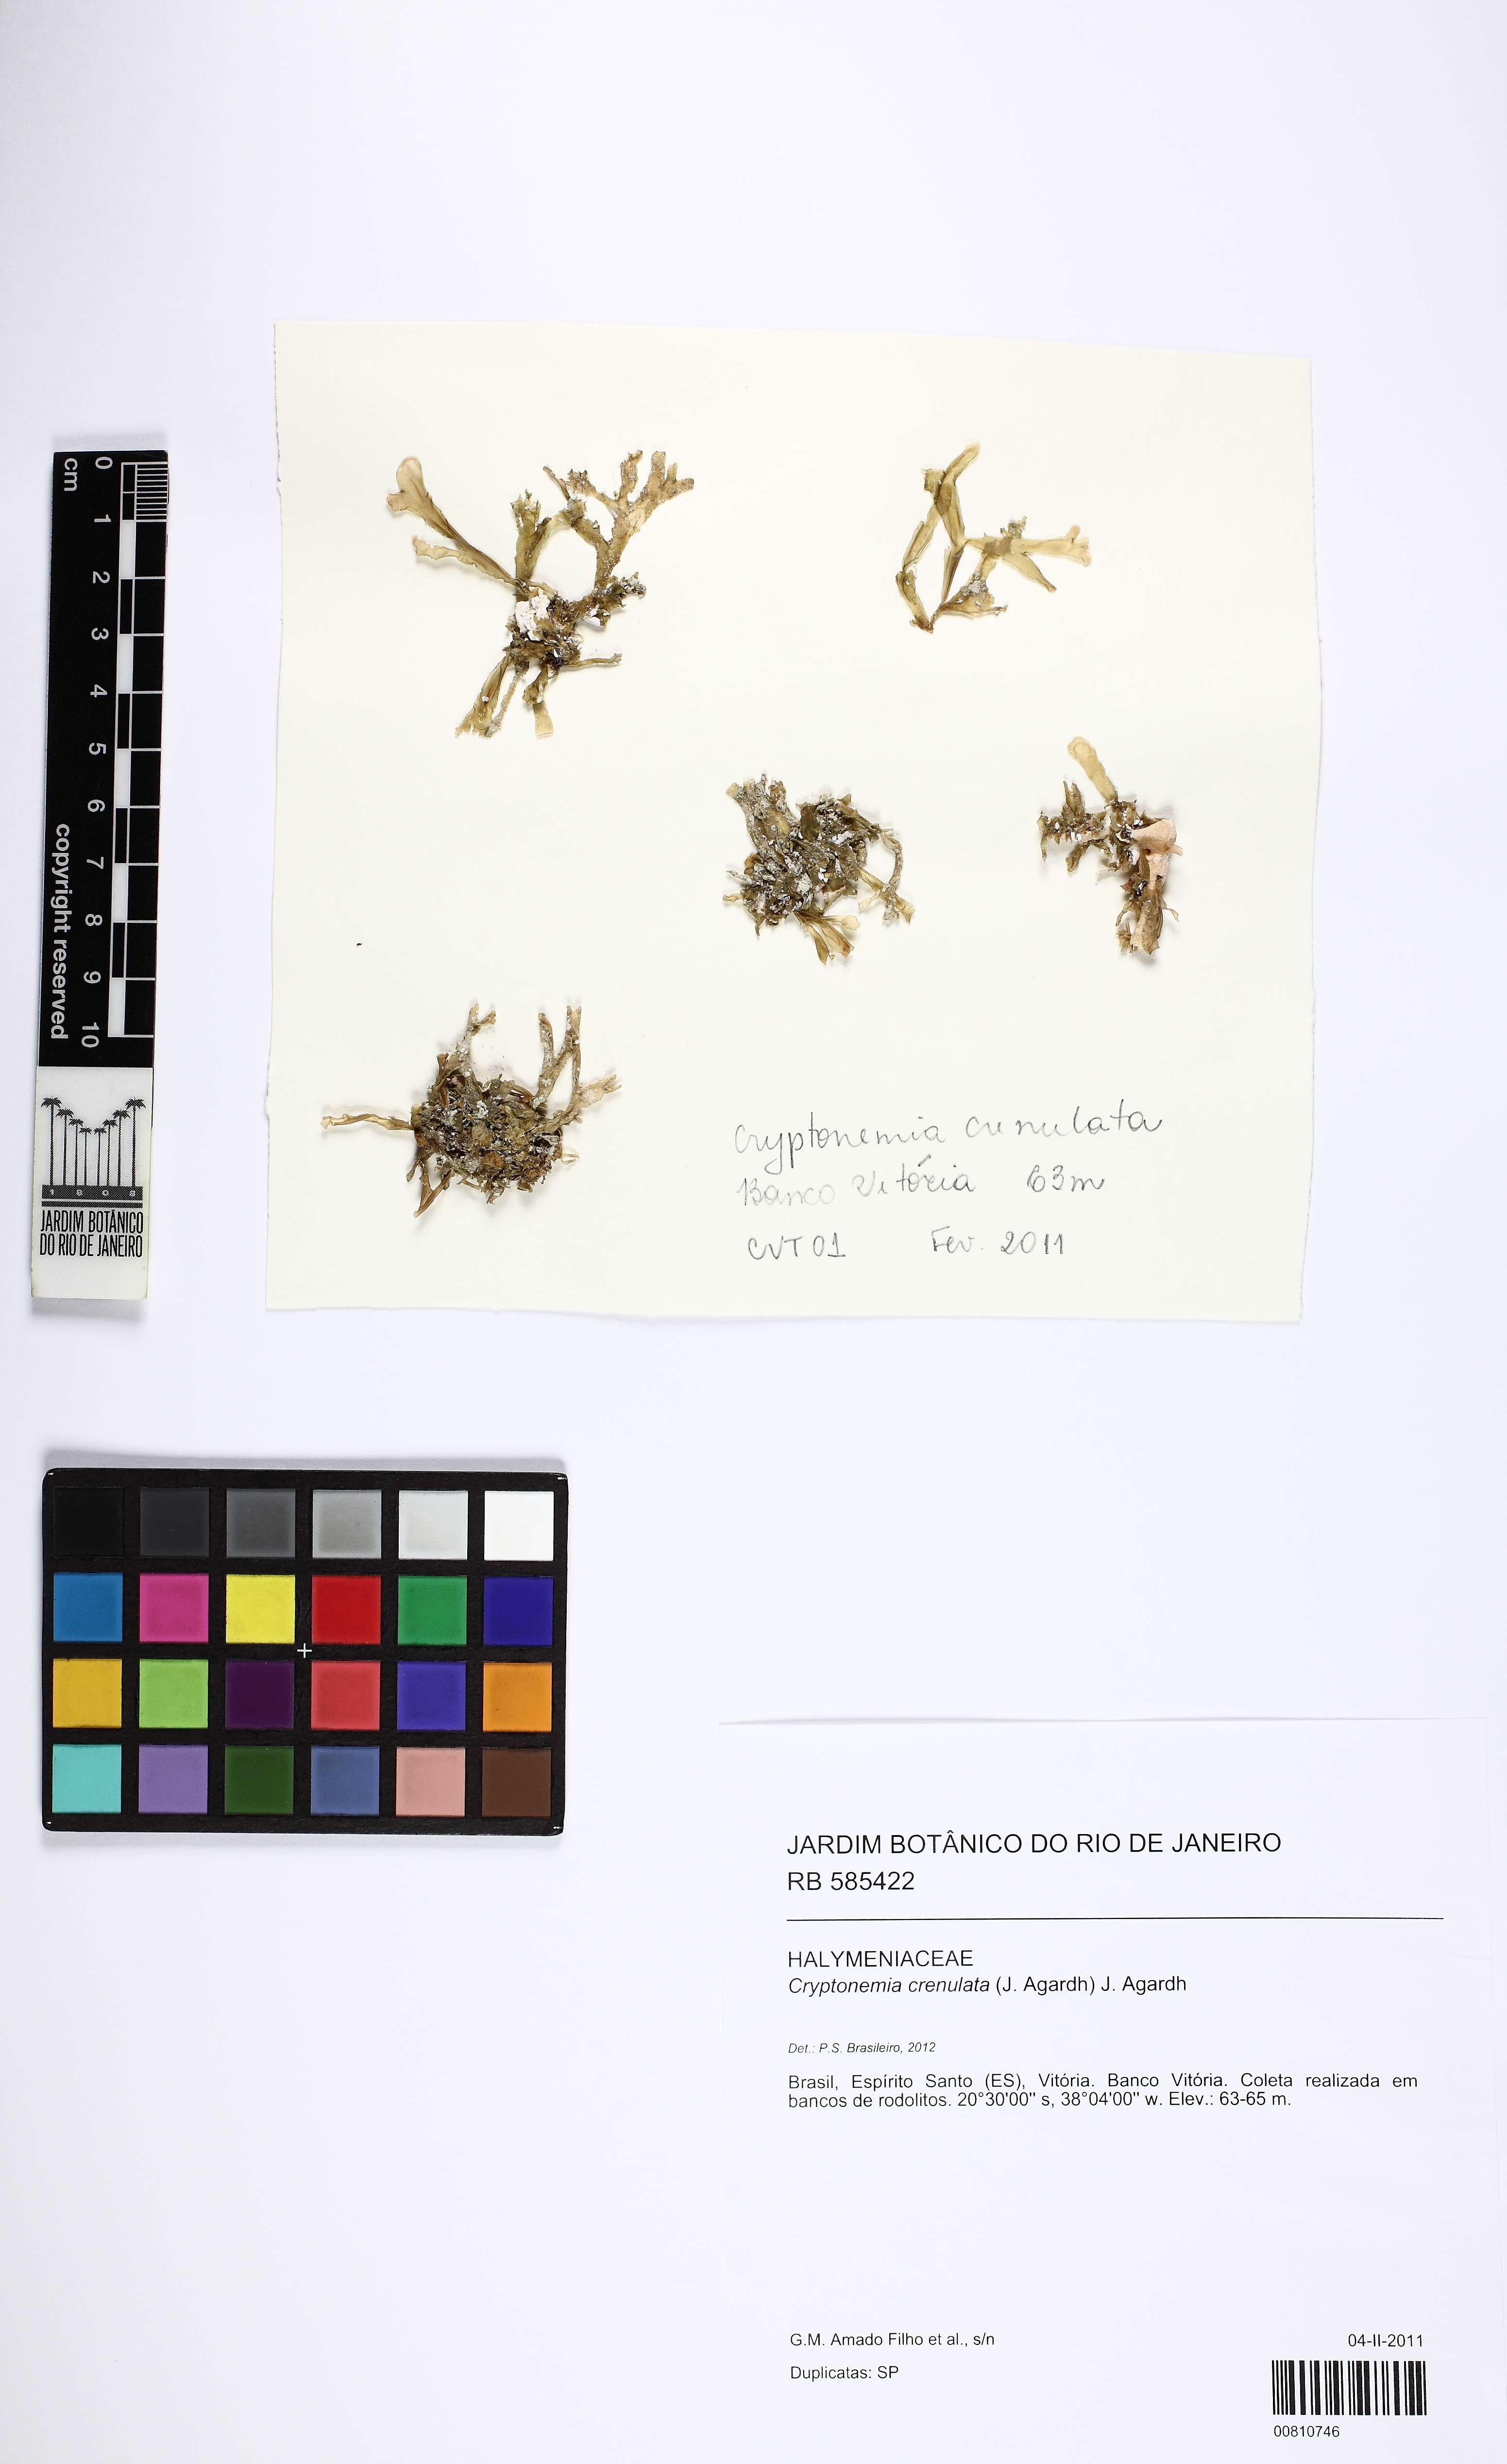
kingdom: Plantae
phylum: Rhodophyta
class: Florideophyceae
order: Halymeniales
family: Halymeniaceae
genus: Cryptonemia
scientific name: Cryptonemia crenulata
